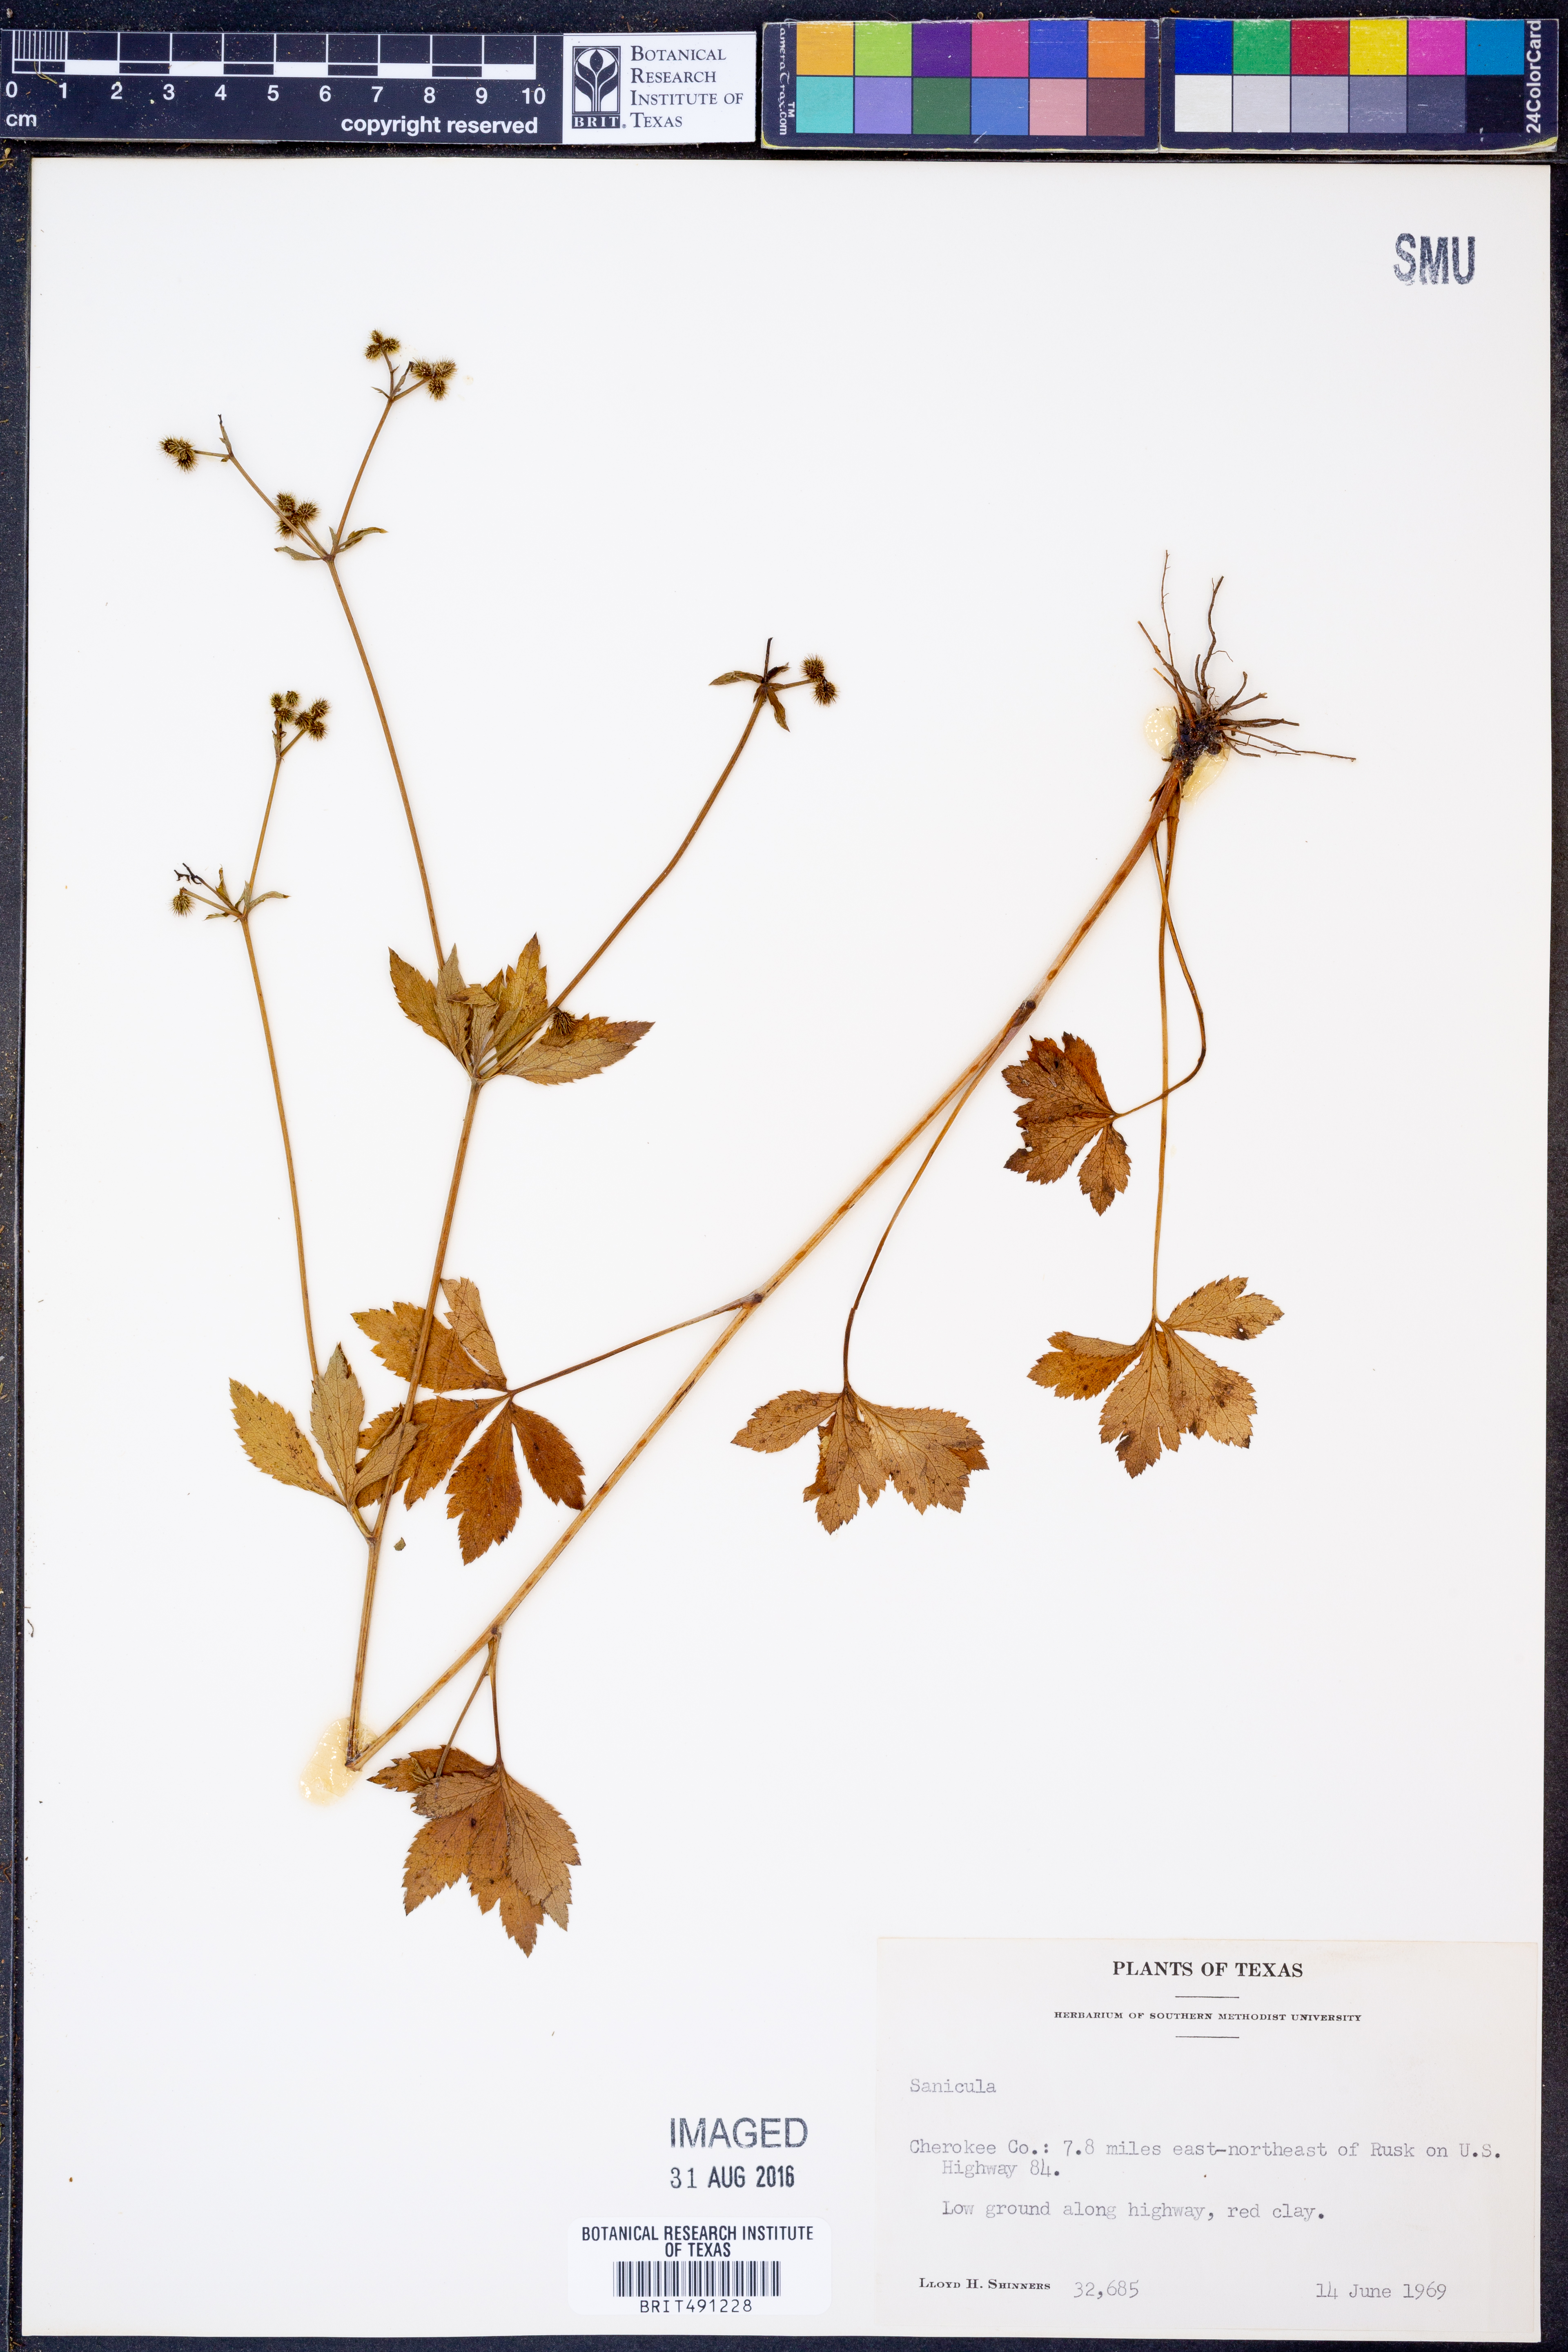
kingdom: Plantae
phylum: Tracheophyta
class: Magnoliopsida
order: Apiales
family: Apiaceae
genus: Sanicula
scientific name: Sanicula
